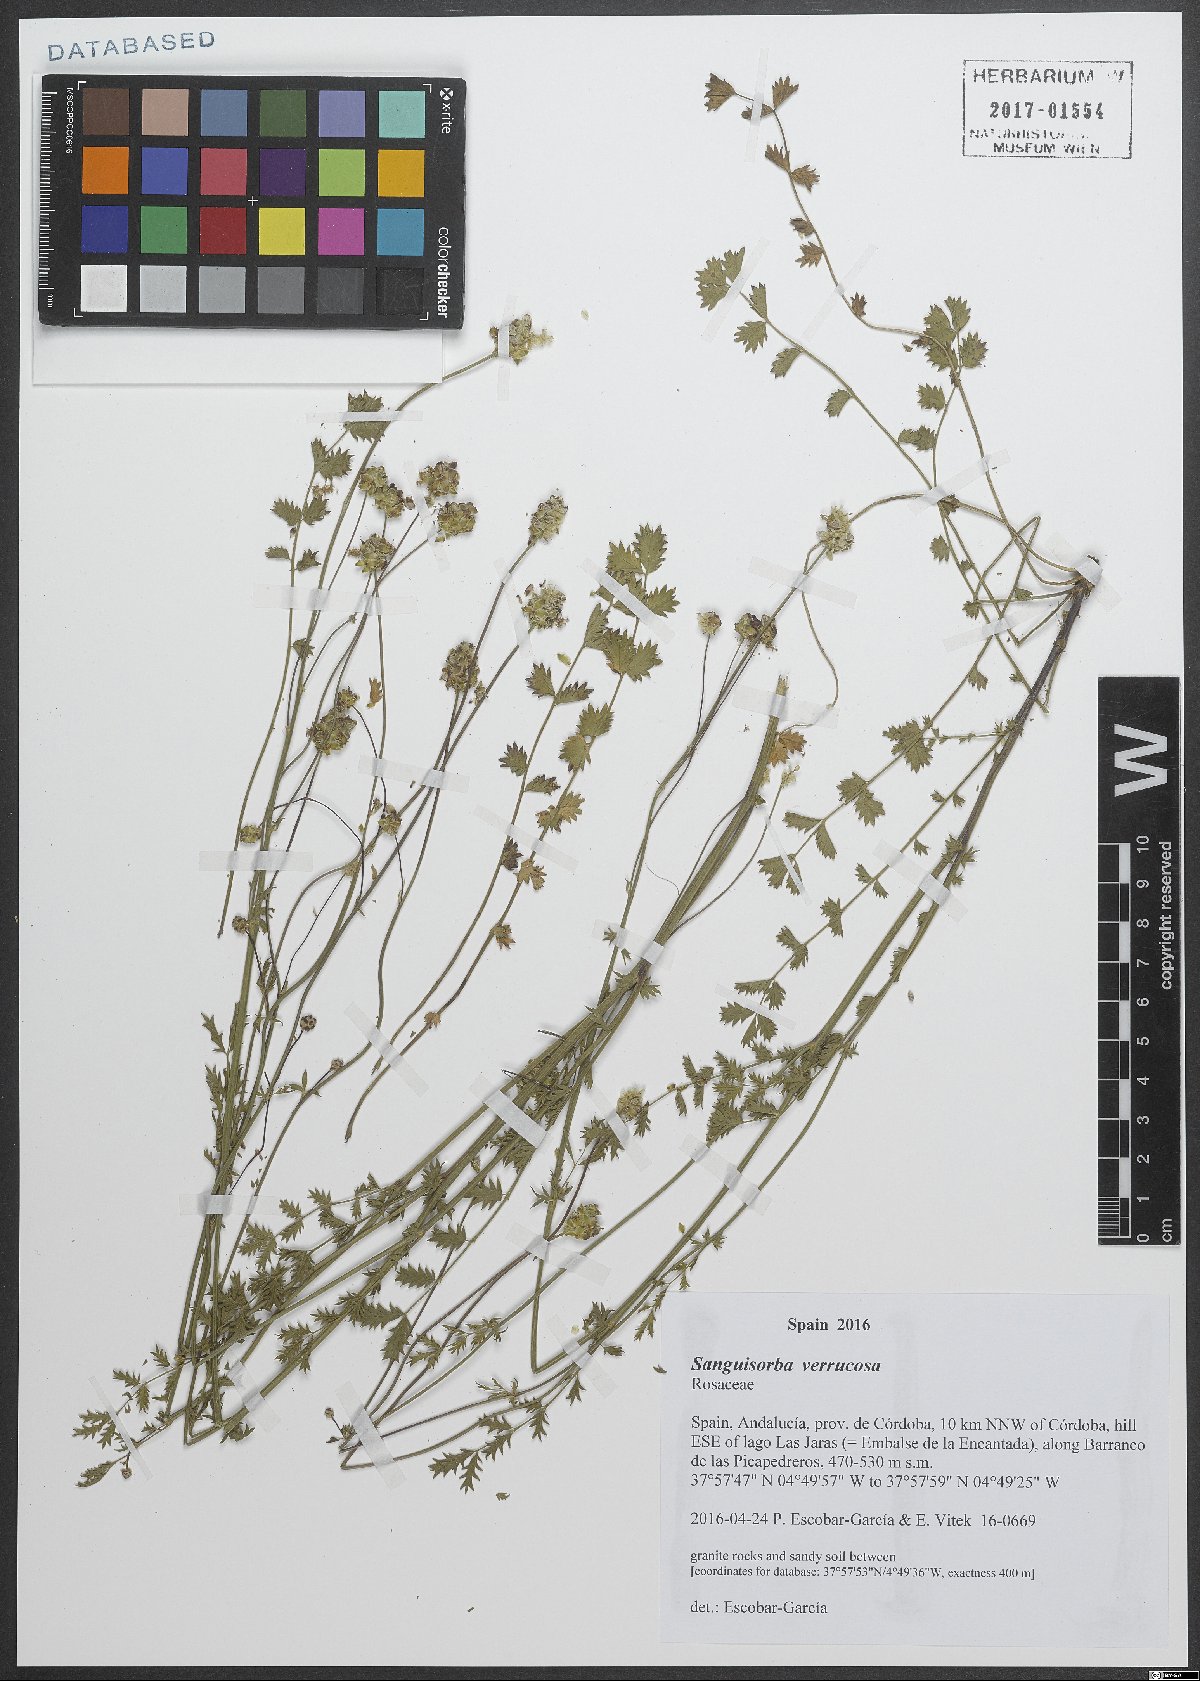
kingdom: Plantae
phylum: Tracheophyta
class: Magnoliopsida
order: Rosales
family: Rosaceae
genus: Poterium
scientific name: Poterium verrucosum
